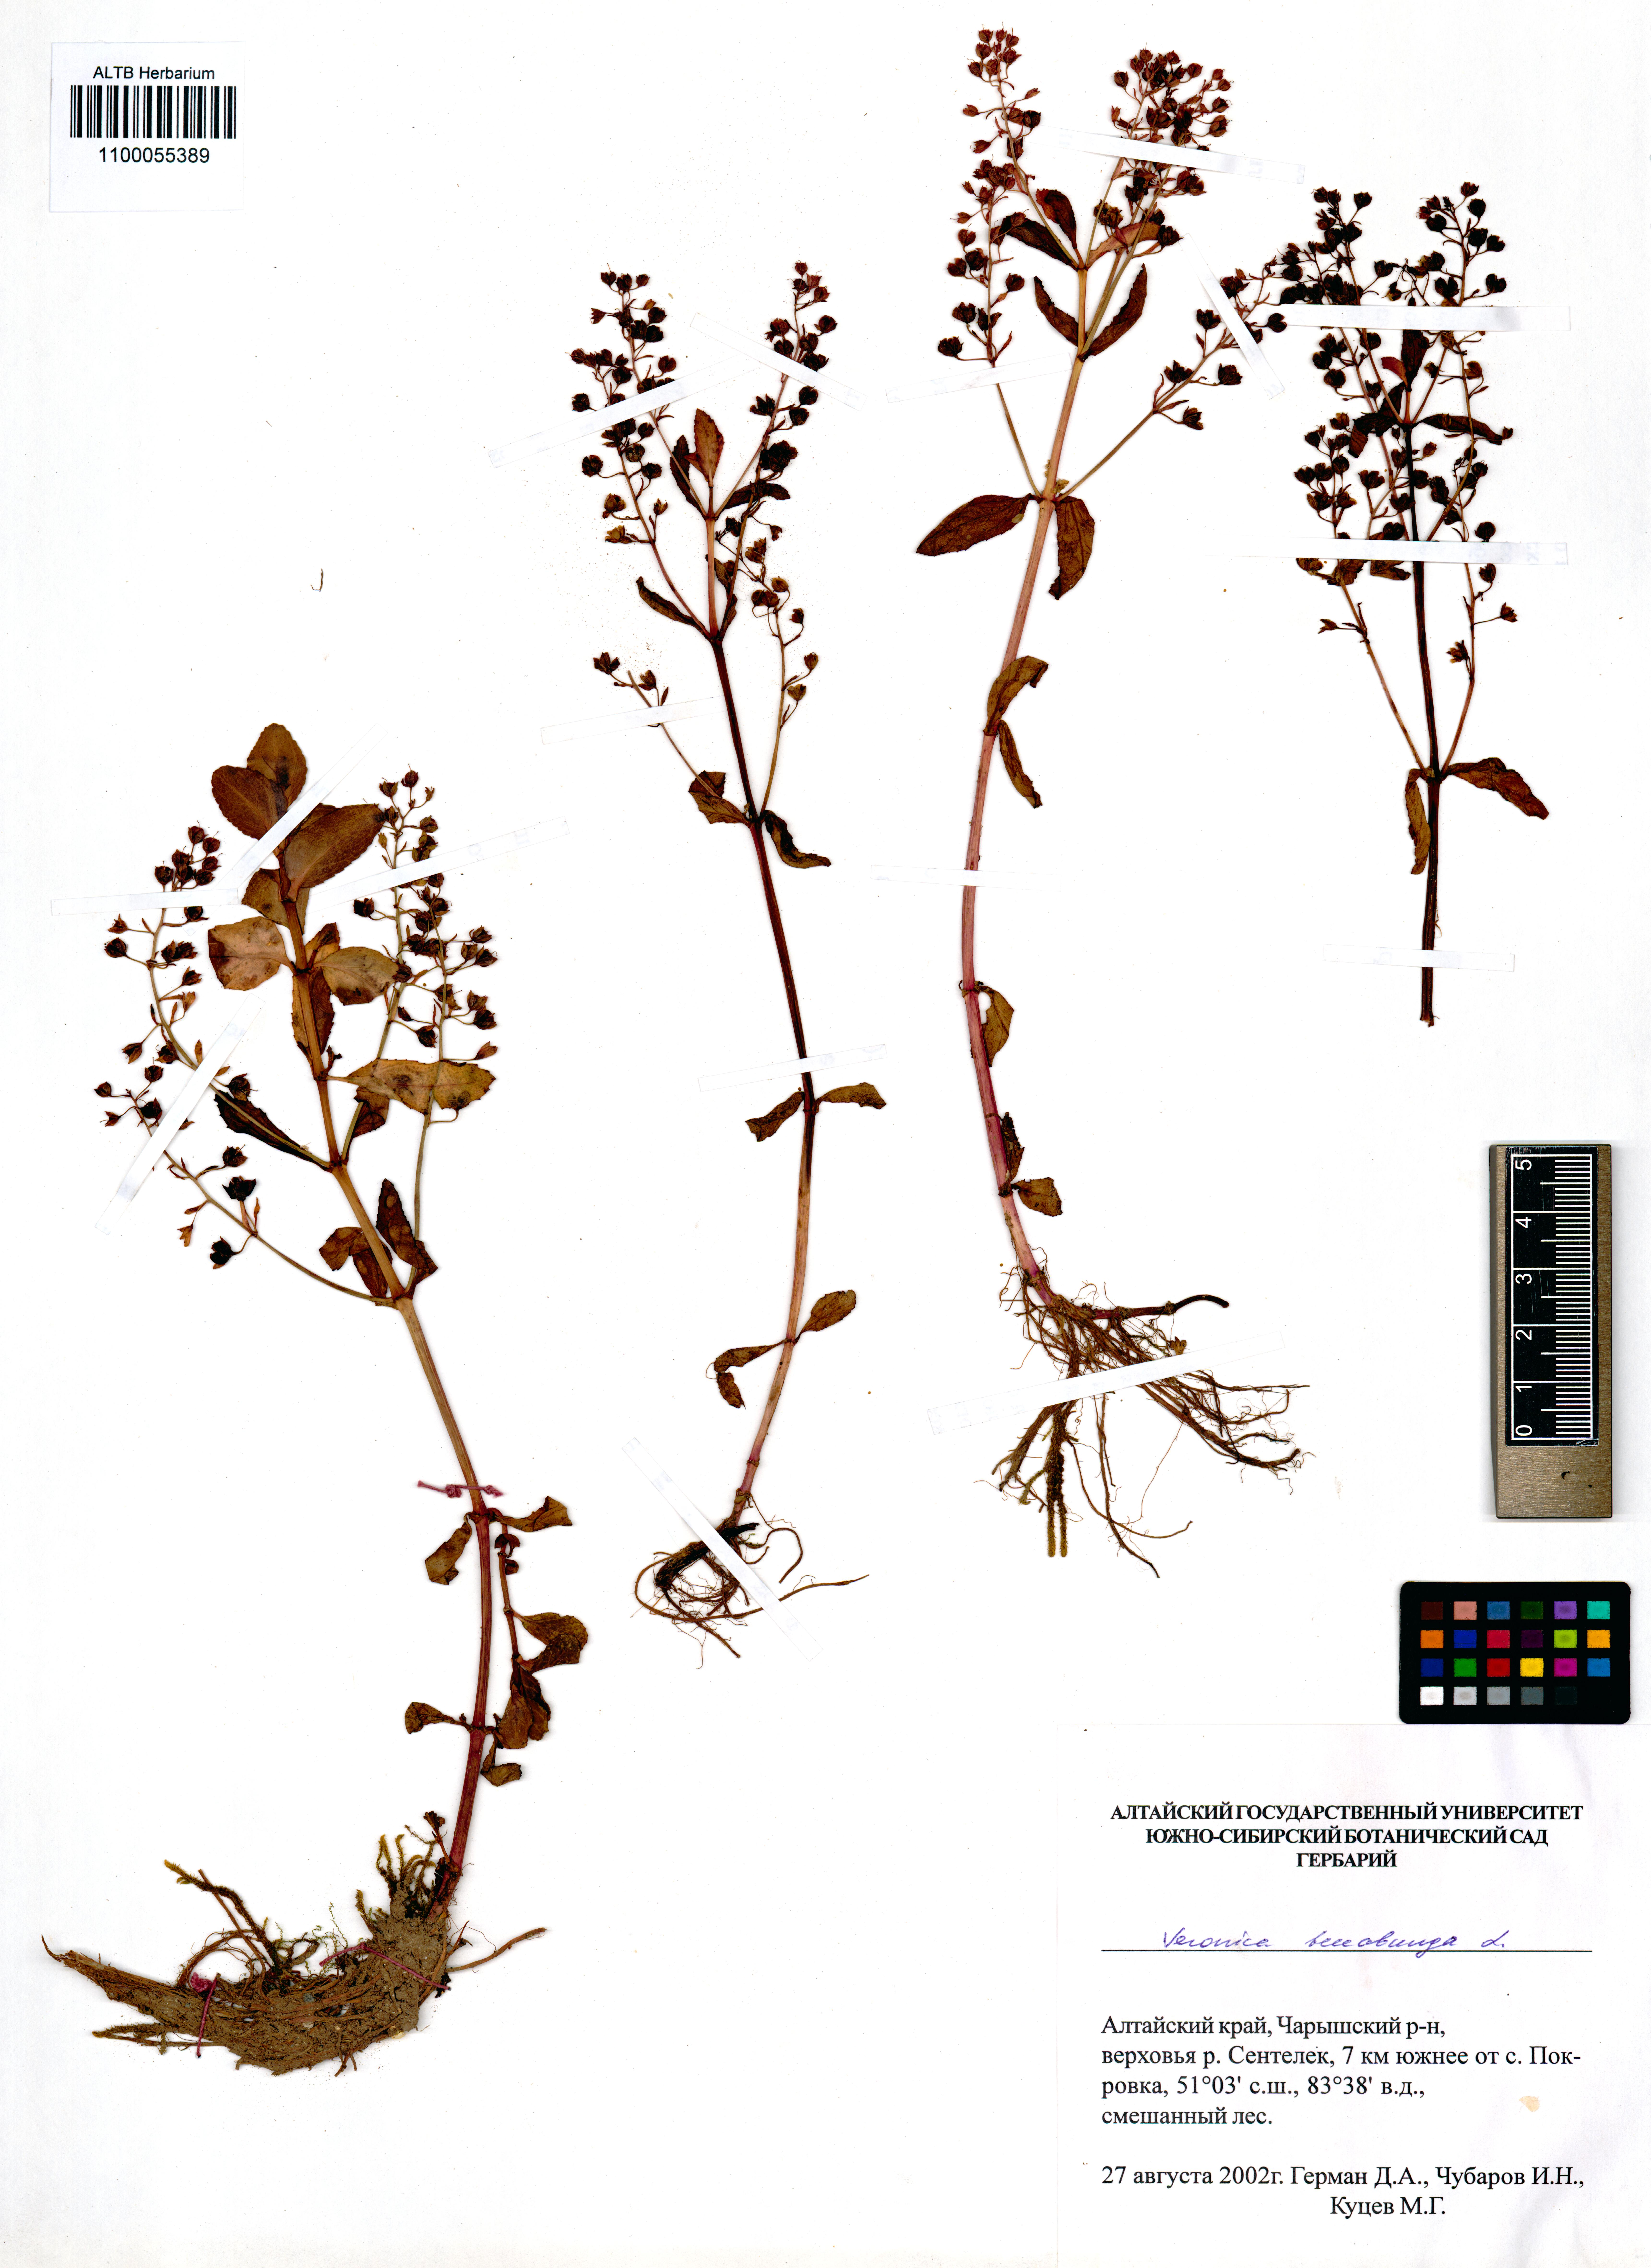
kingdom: Plantae
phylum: Tracheophyta
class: Magnoliopsida
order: Lamiales
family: Plantaginaceae
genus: Veronica
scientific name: Veronica beccabunga
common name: Brooklime
